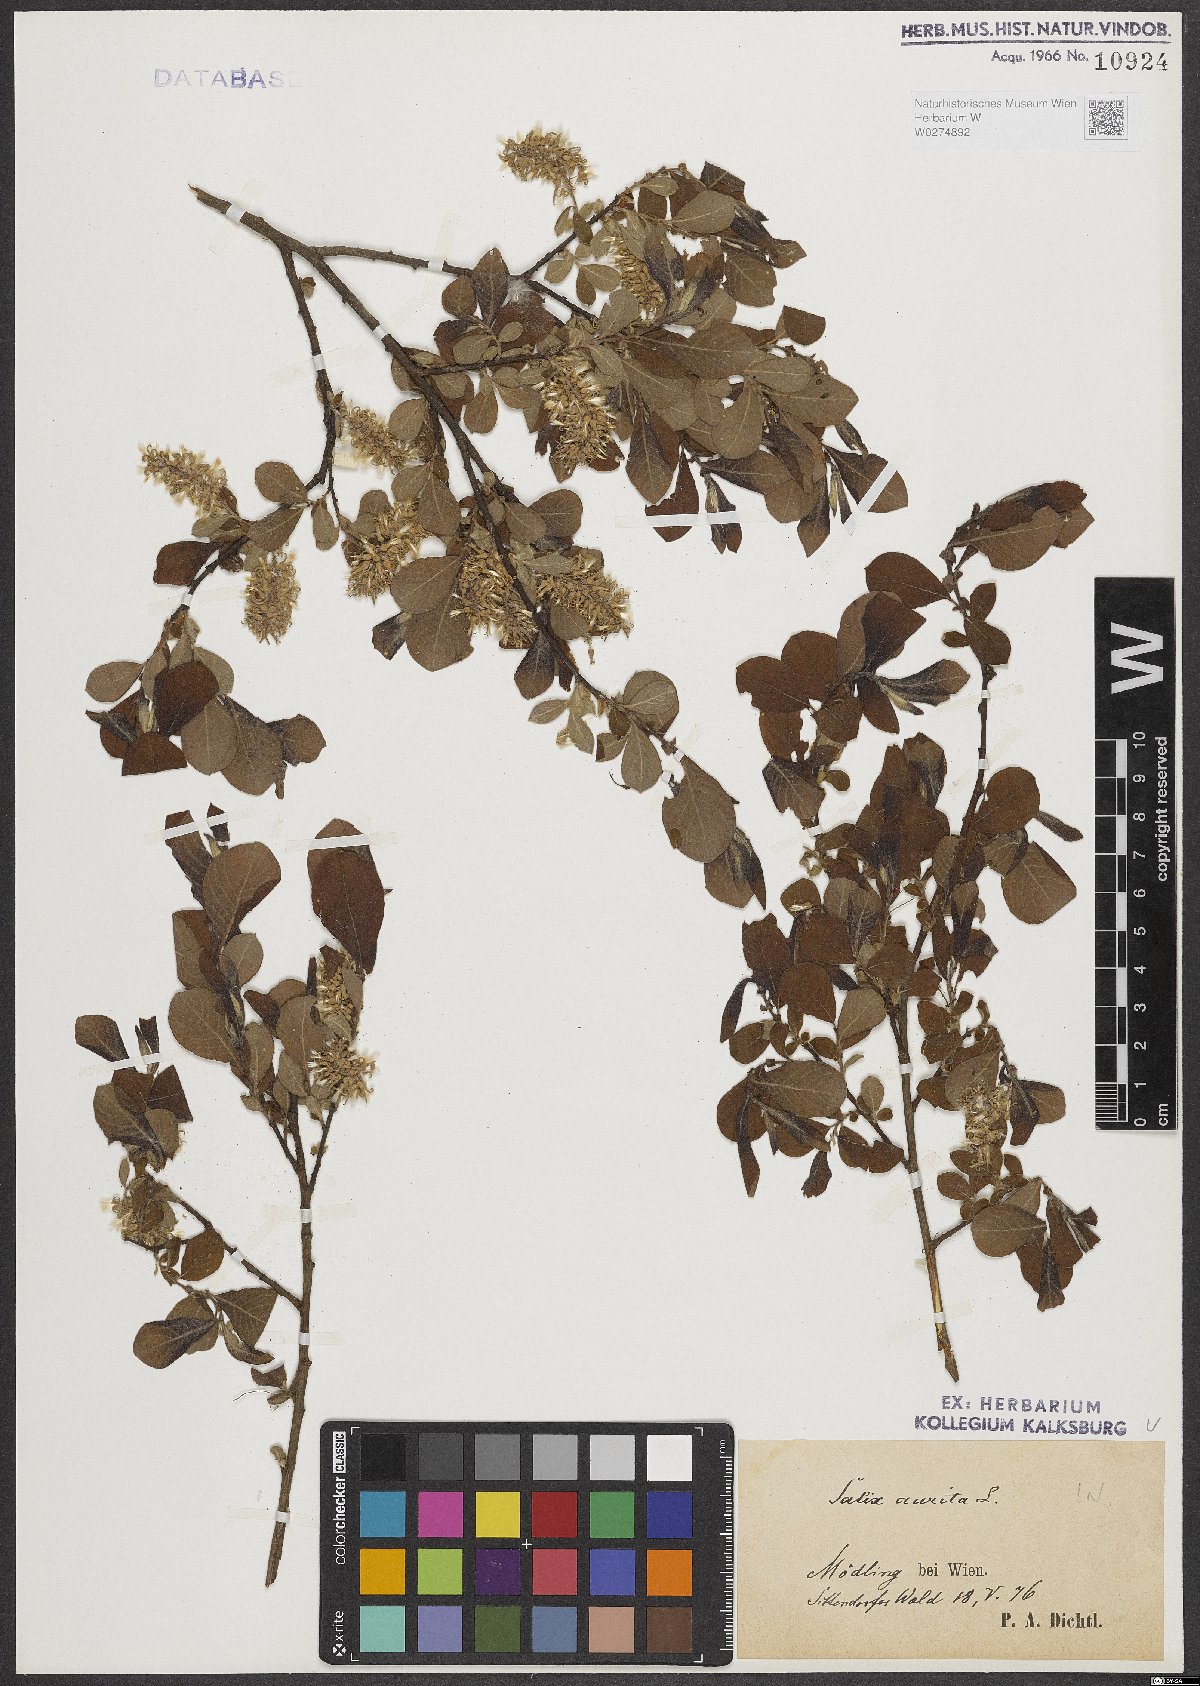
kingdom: Plantae
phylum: Tracheophyta
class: Magnoliopsida
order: Malpighiales
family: Salicaceae
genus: Salix
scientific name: Salix aurita
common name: Eared willow
